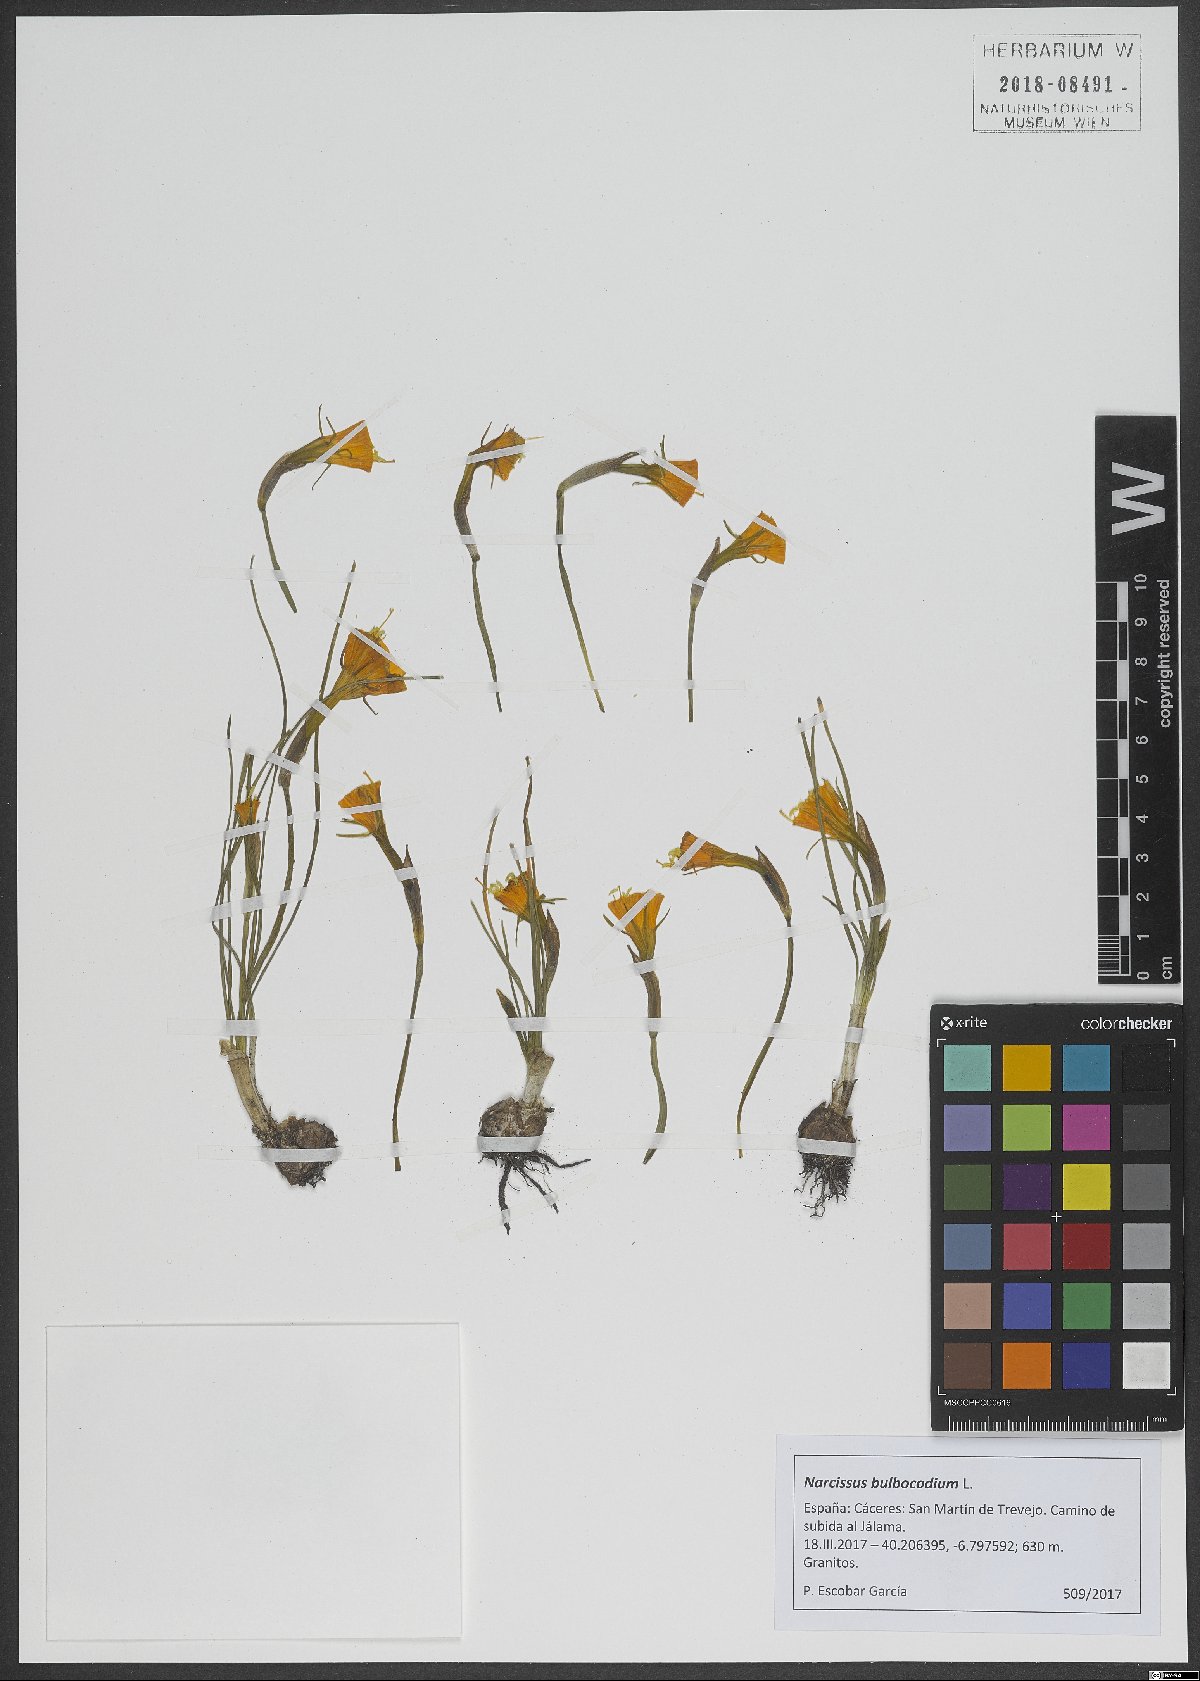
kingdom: Plantae
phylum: Tracheophyta
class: Liliopsida
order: Asparagales
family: Amaryllidaceae
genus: Narcissus
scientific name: Narcissus bulbocodium
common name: Hoop-petticoat daffodil
